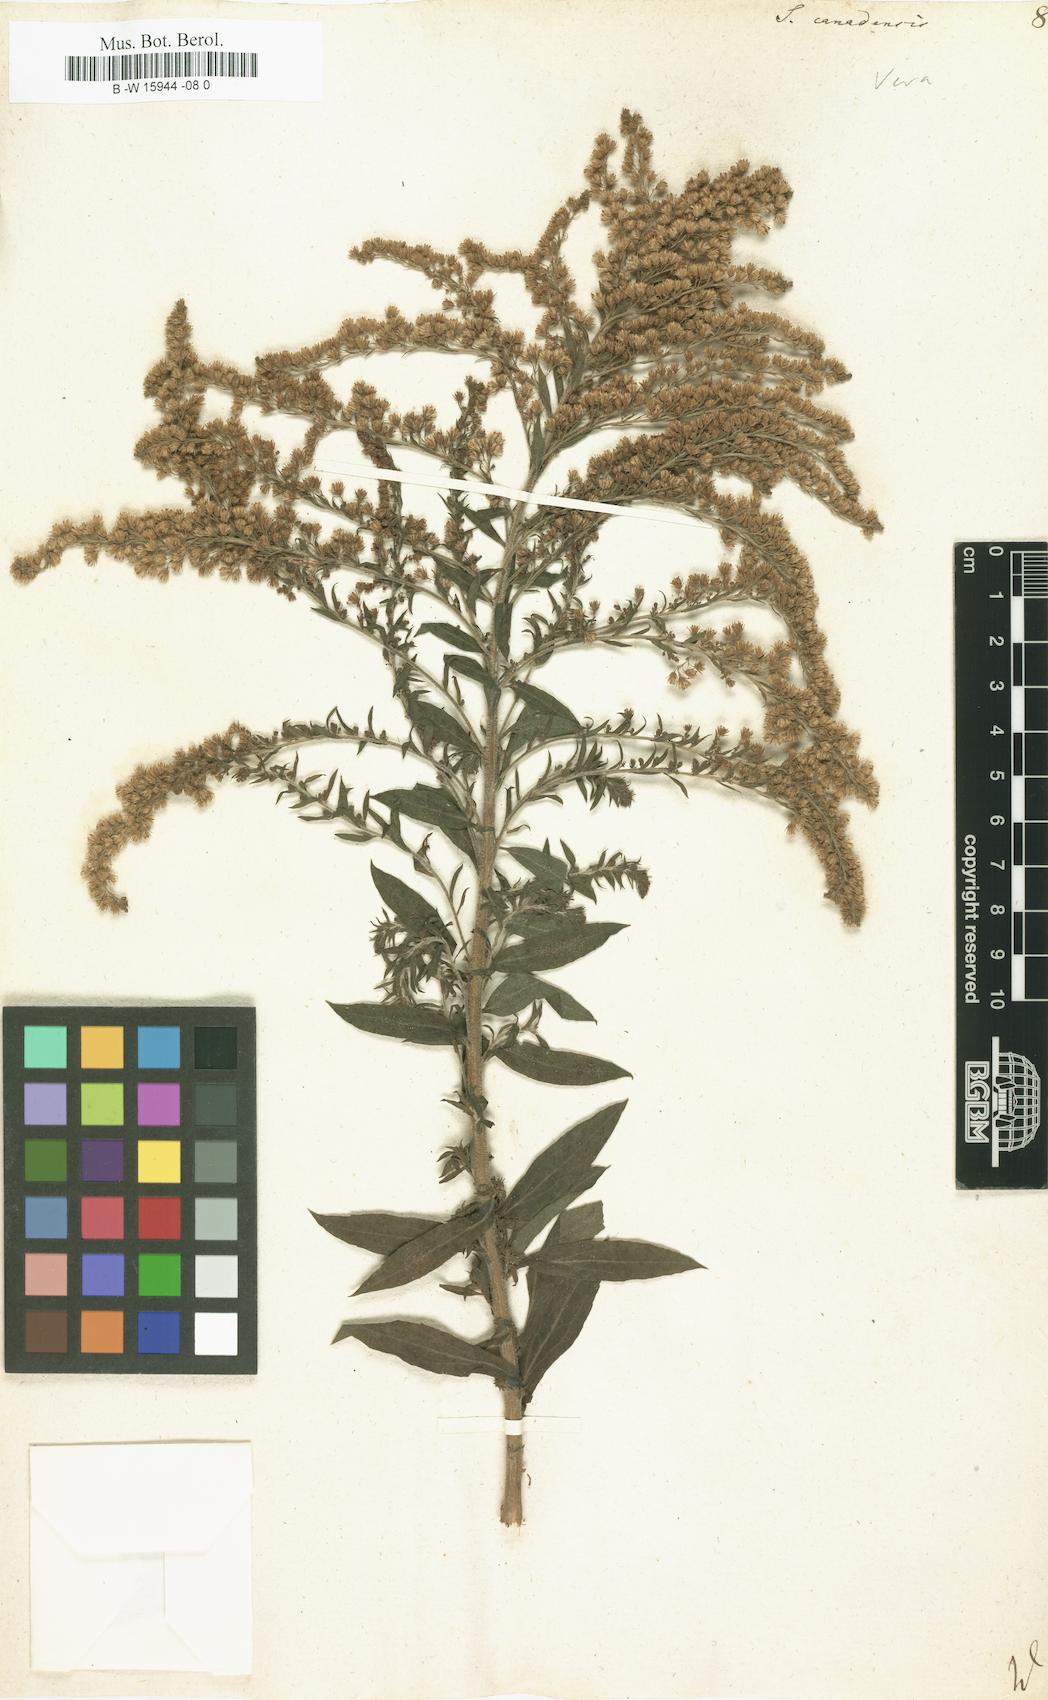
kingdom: Plantae
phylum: Tracheophyta
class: Magnoliopsida
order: Asterales
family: Asteraceae
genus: Solidago
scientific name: Solidago canadensis
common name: Canada goldenrod
